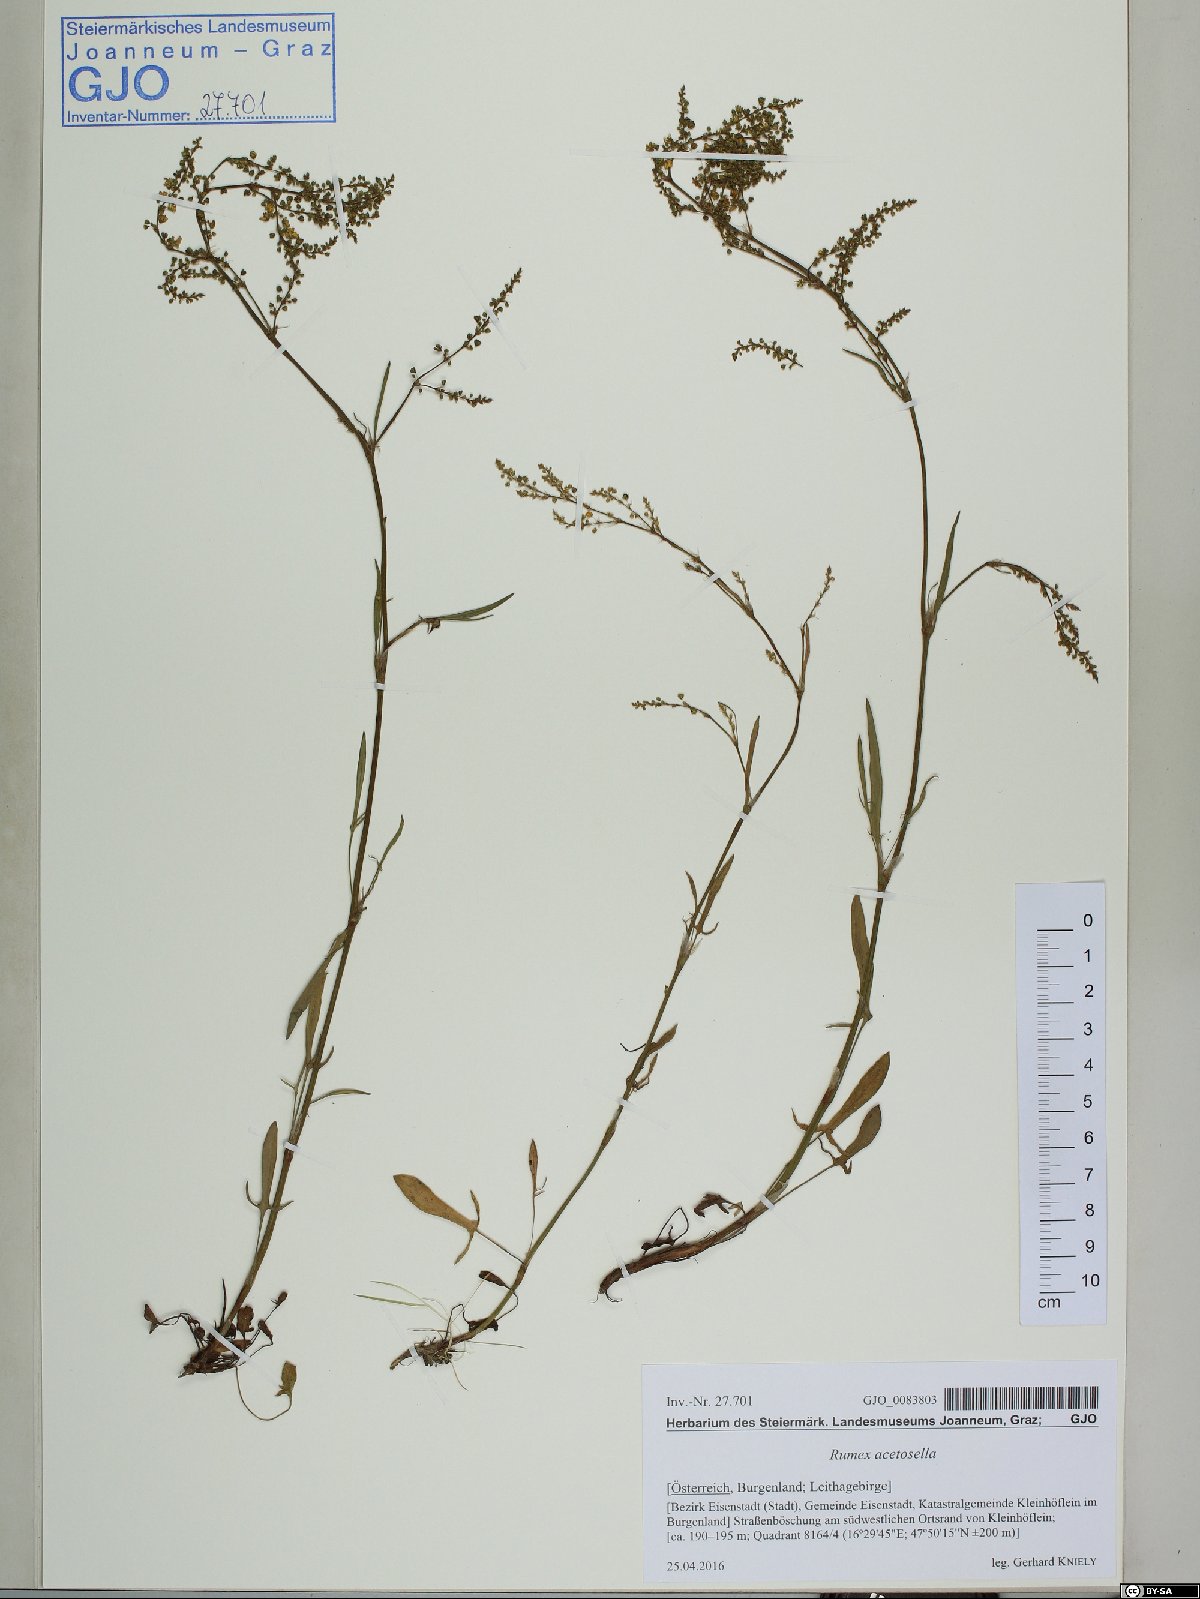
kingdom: Plantae
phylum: Tracheophyta
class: Magnoliopsida
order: Caryophyllales
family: Polygonaceae
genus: Rumex
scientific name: Rumex acetosella
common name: Common sheep sorrel
